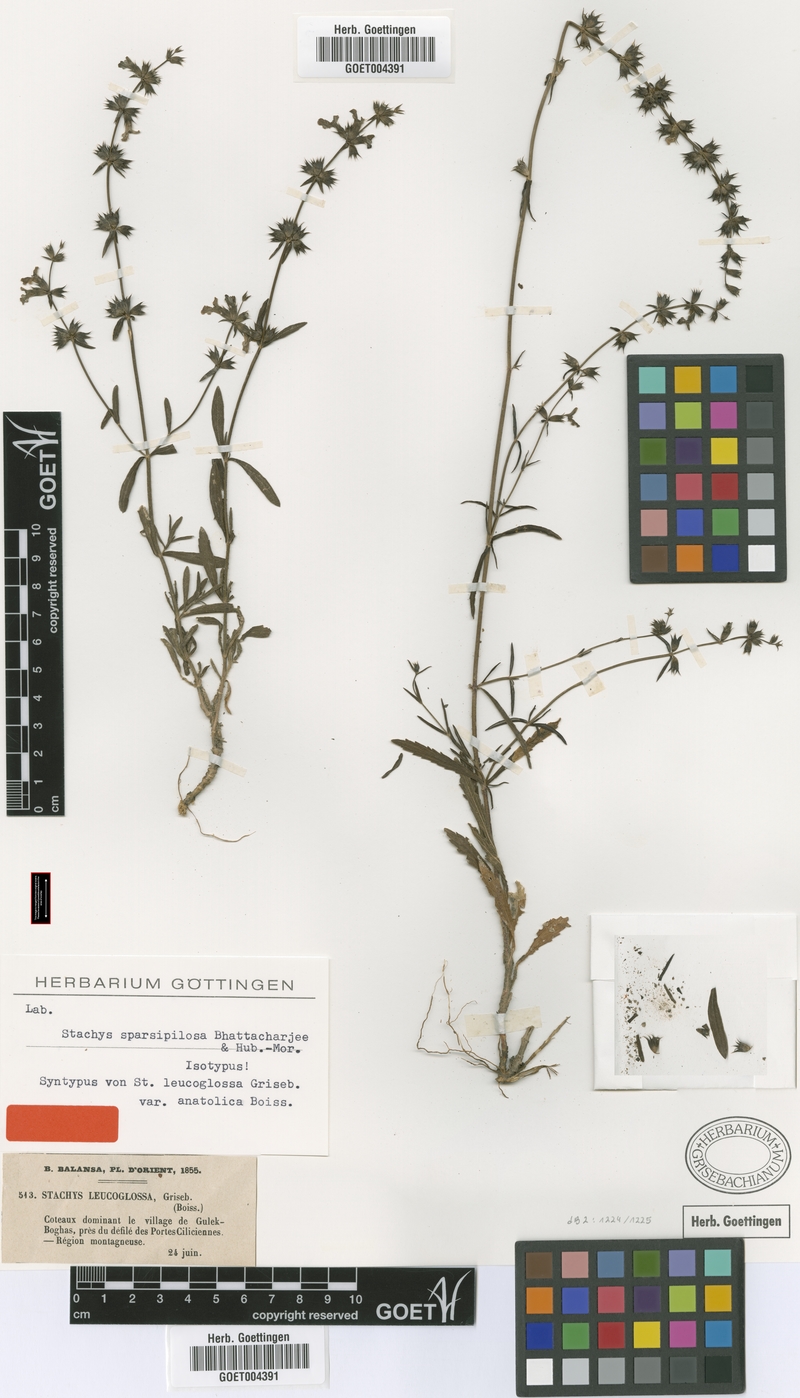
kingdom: Plantae
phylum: Tracheophyta
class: Magnoliopsida
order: Lamiales
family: Lamiaceae
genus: Stachys
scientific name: Stachys sparsipilosa
